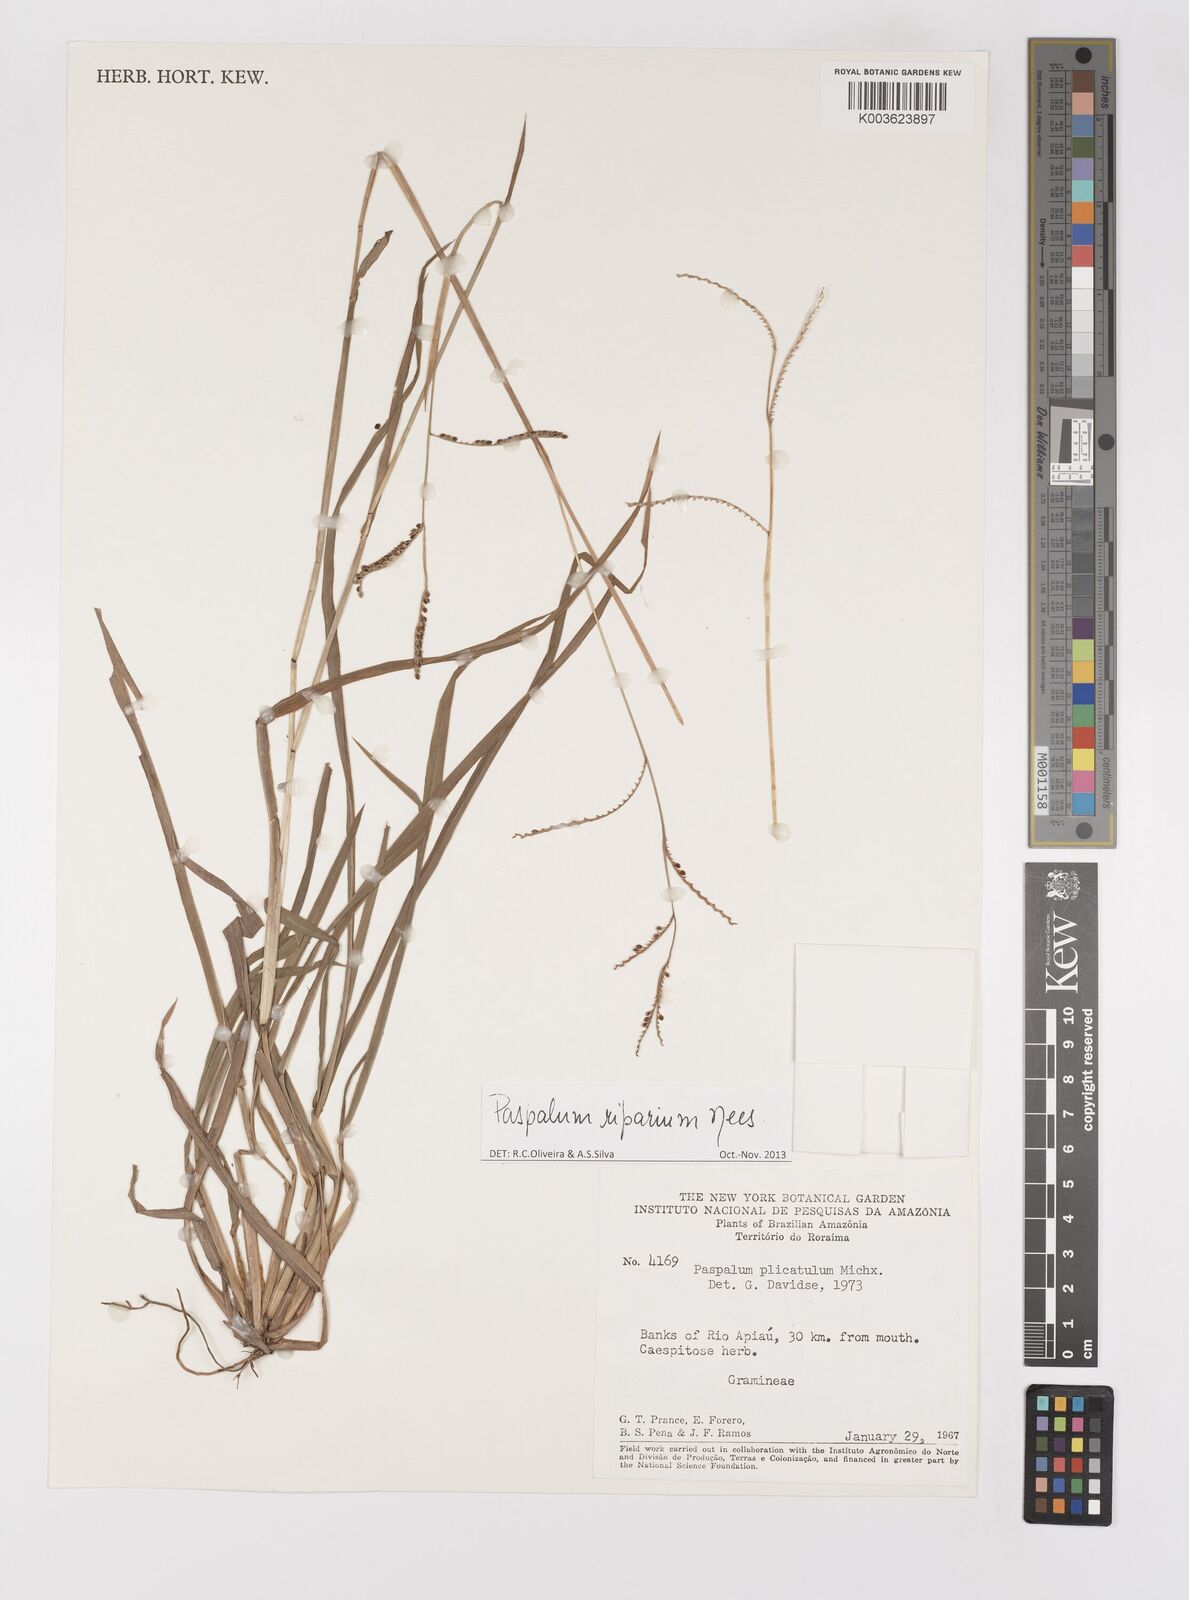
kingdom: Plantae
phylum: Tracheophyta
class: Liliopsida
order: Poales
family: Poaceae
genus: Paspalum
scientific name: Paspalum melanospermum
